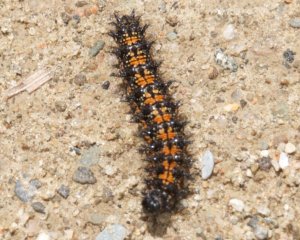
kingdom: Animalia
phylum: Arthropoda
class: Insecta
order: Lepidoptera
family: Nymphalidae
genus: Chlosyne
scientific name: Chlosyne harrisii
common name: Harris's Checkerspot
